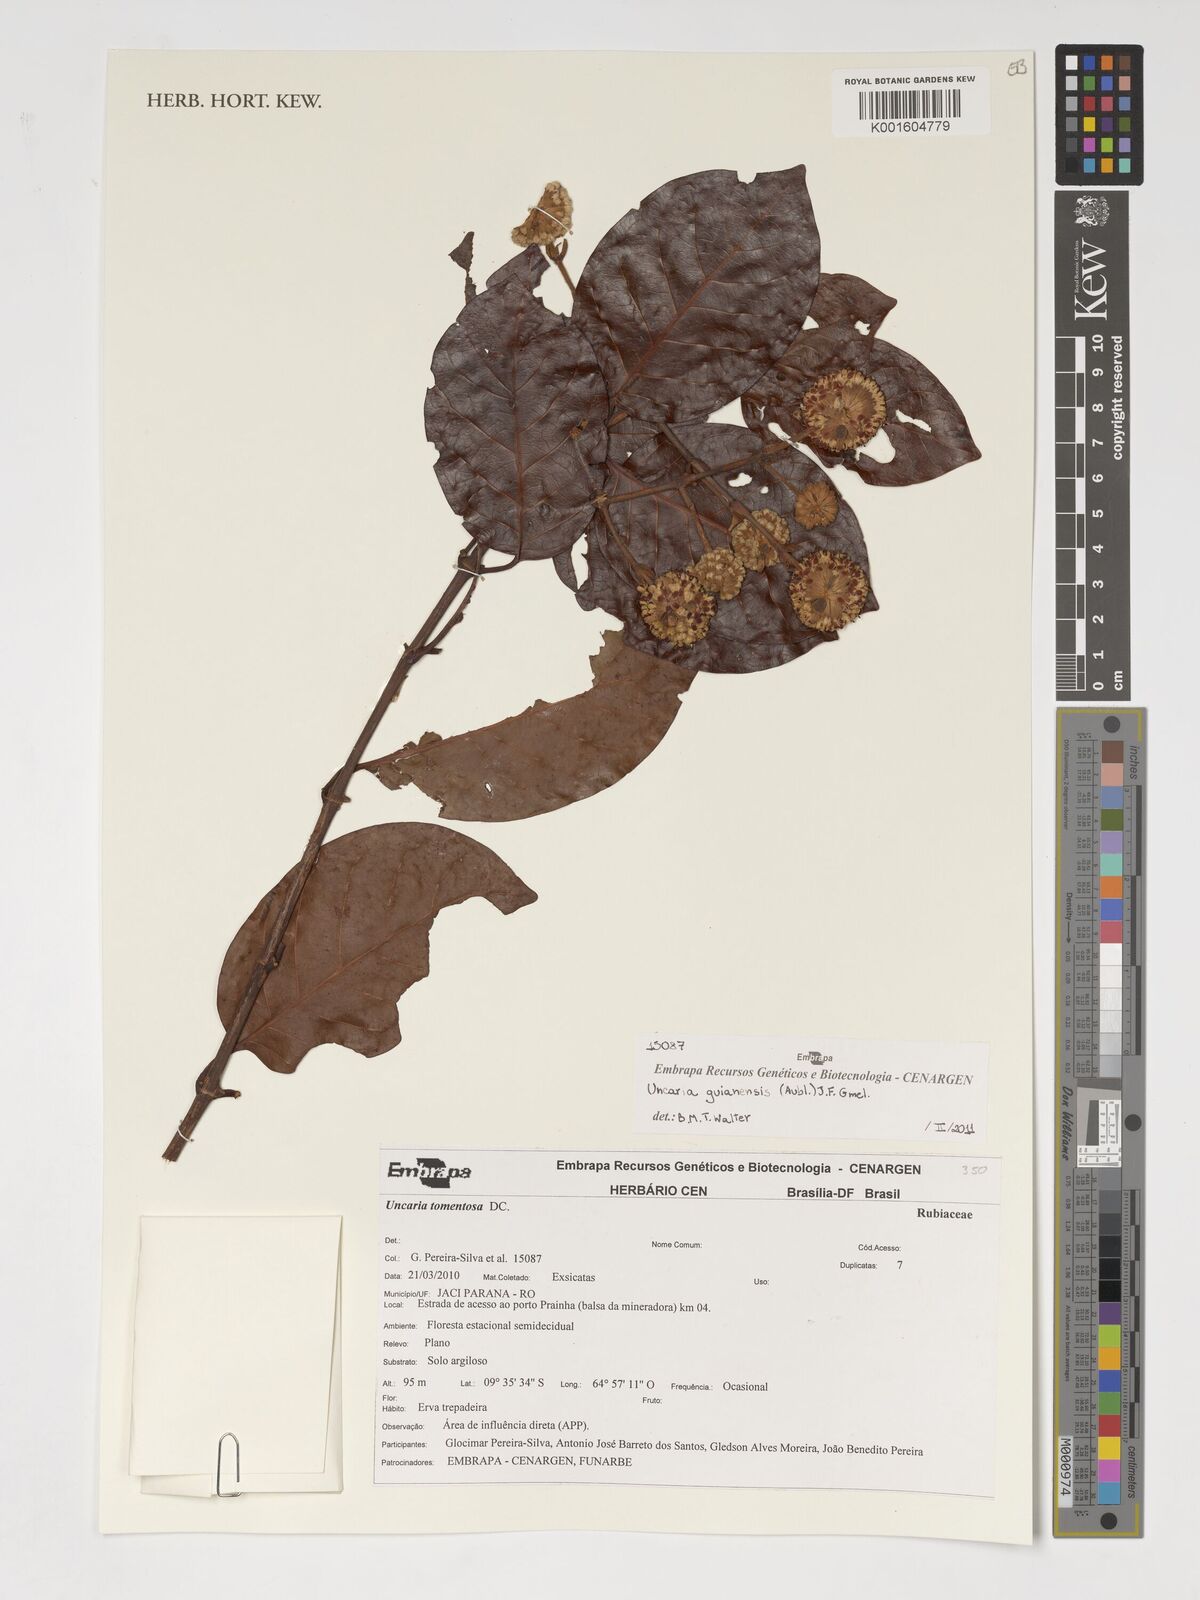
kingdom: Plantae
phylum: Tracheophyta
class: Magnoliopsida
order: Gentianales
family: Rubiaceae
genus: Uncaria
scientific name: Uncaria guianensis
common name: Cat's-claw
